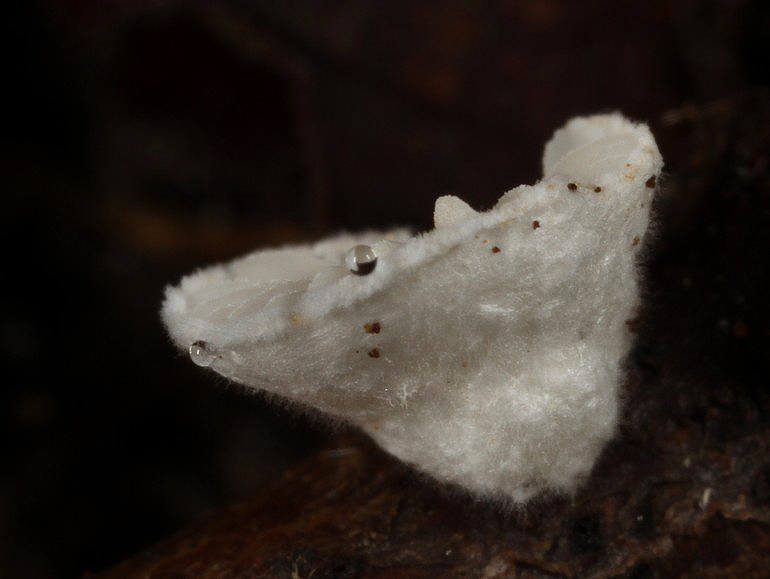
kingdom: Fungi
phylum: Basidiomycota
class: Agaricomycetes
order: Agaricales
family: Crepidotaceae
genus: Crepidotus
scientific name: Crepidotus cesatii
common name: almindelig muslingesvamp
